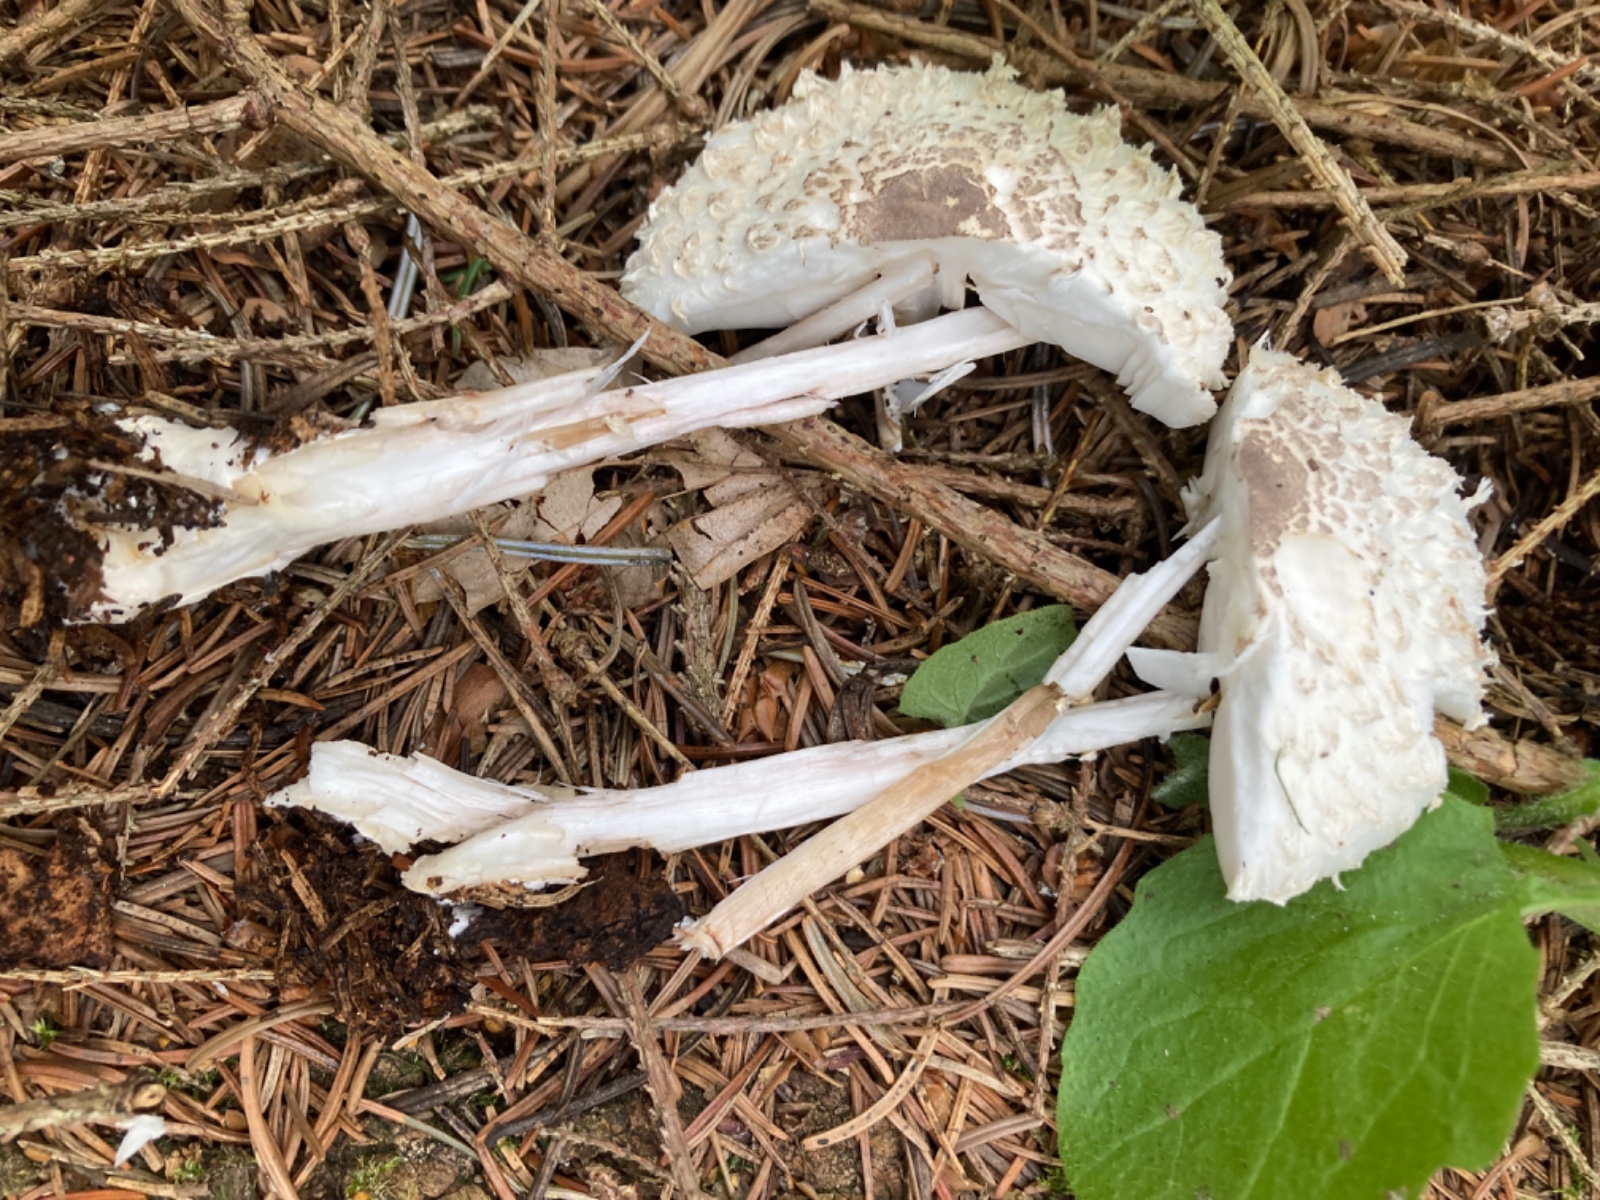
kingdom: Fungi
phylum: Basidiomycota
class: Agaricomycetes
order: Agaricales
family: Agaricaceae
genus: Leucoagaricus
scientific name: Leucoagaricus nympharum
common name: gran-silkehat
